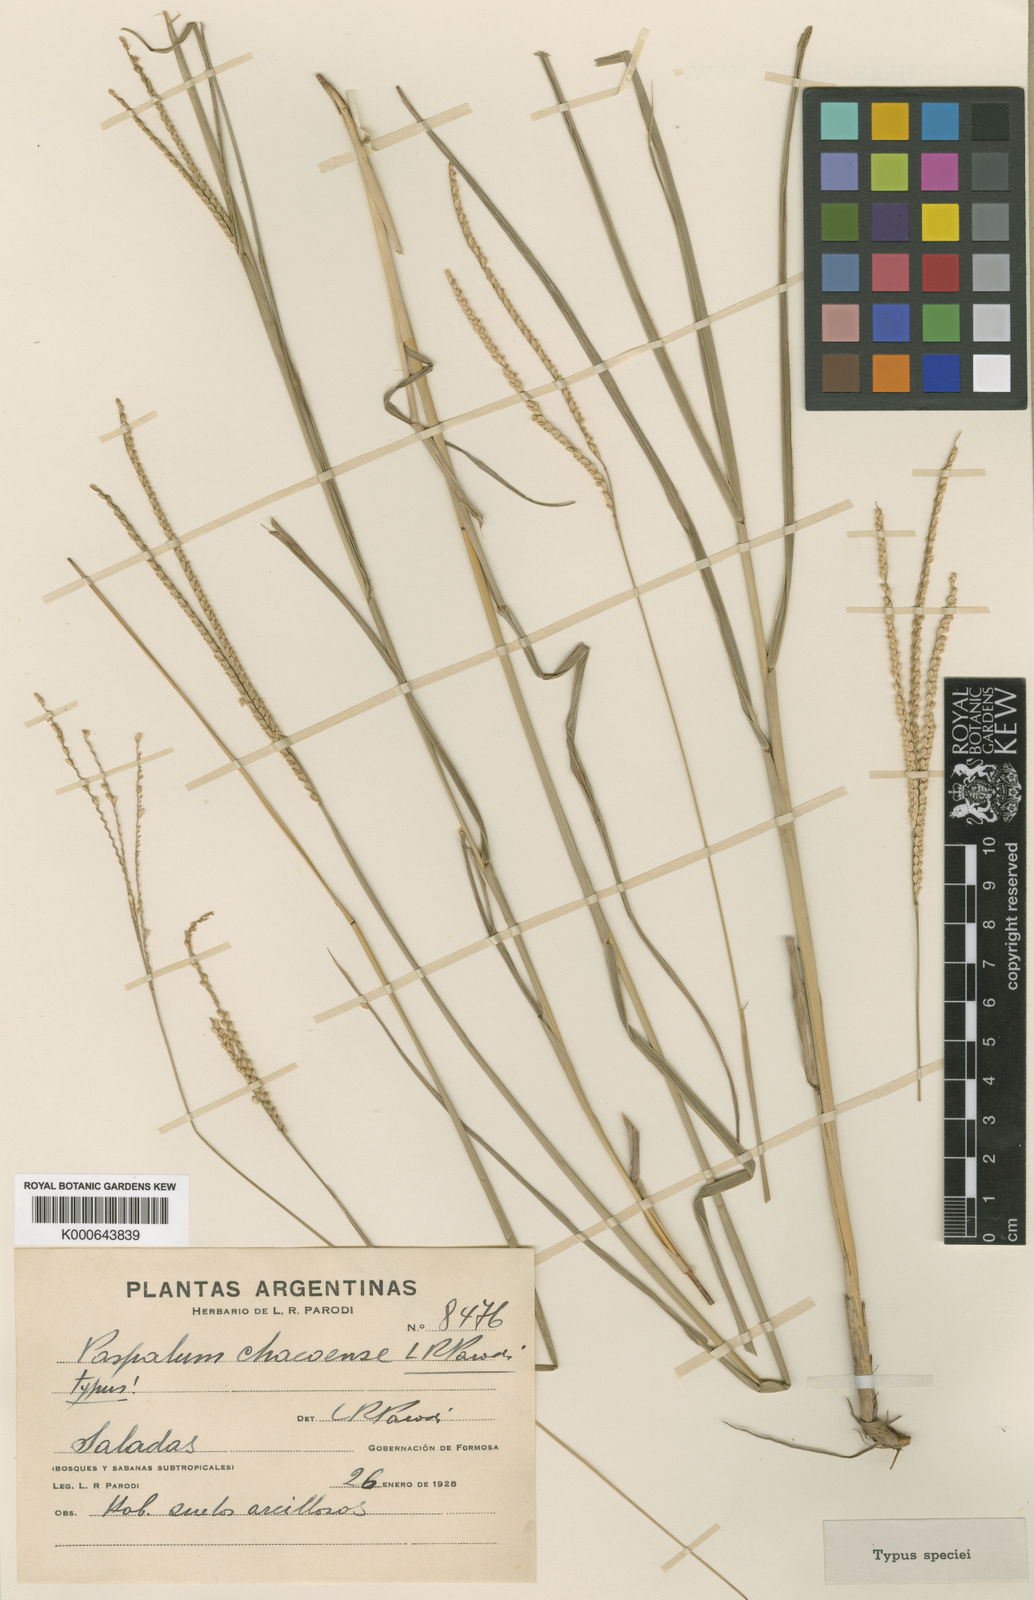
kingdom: Plantae
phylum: Tracheophyta
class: Liliopsida
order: Poales
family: Poaceae
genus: Paspalum
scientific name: Paspalum chacoense
